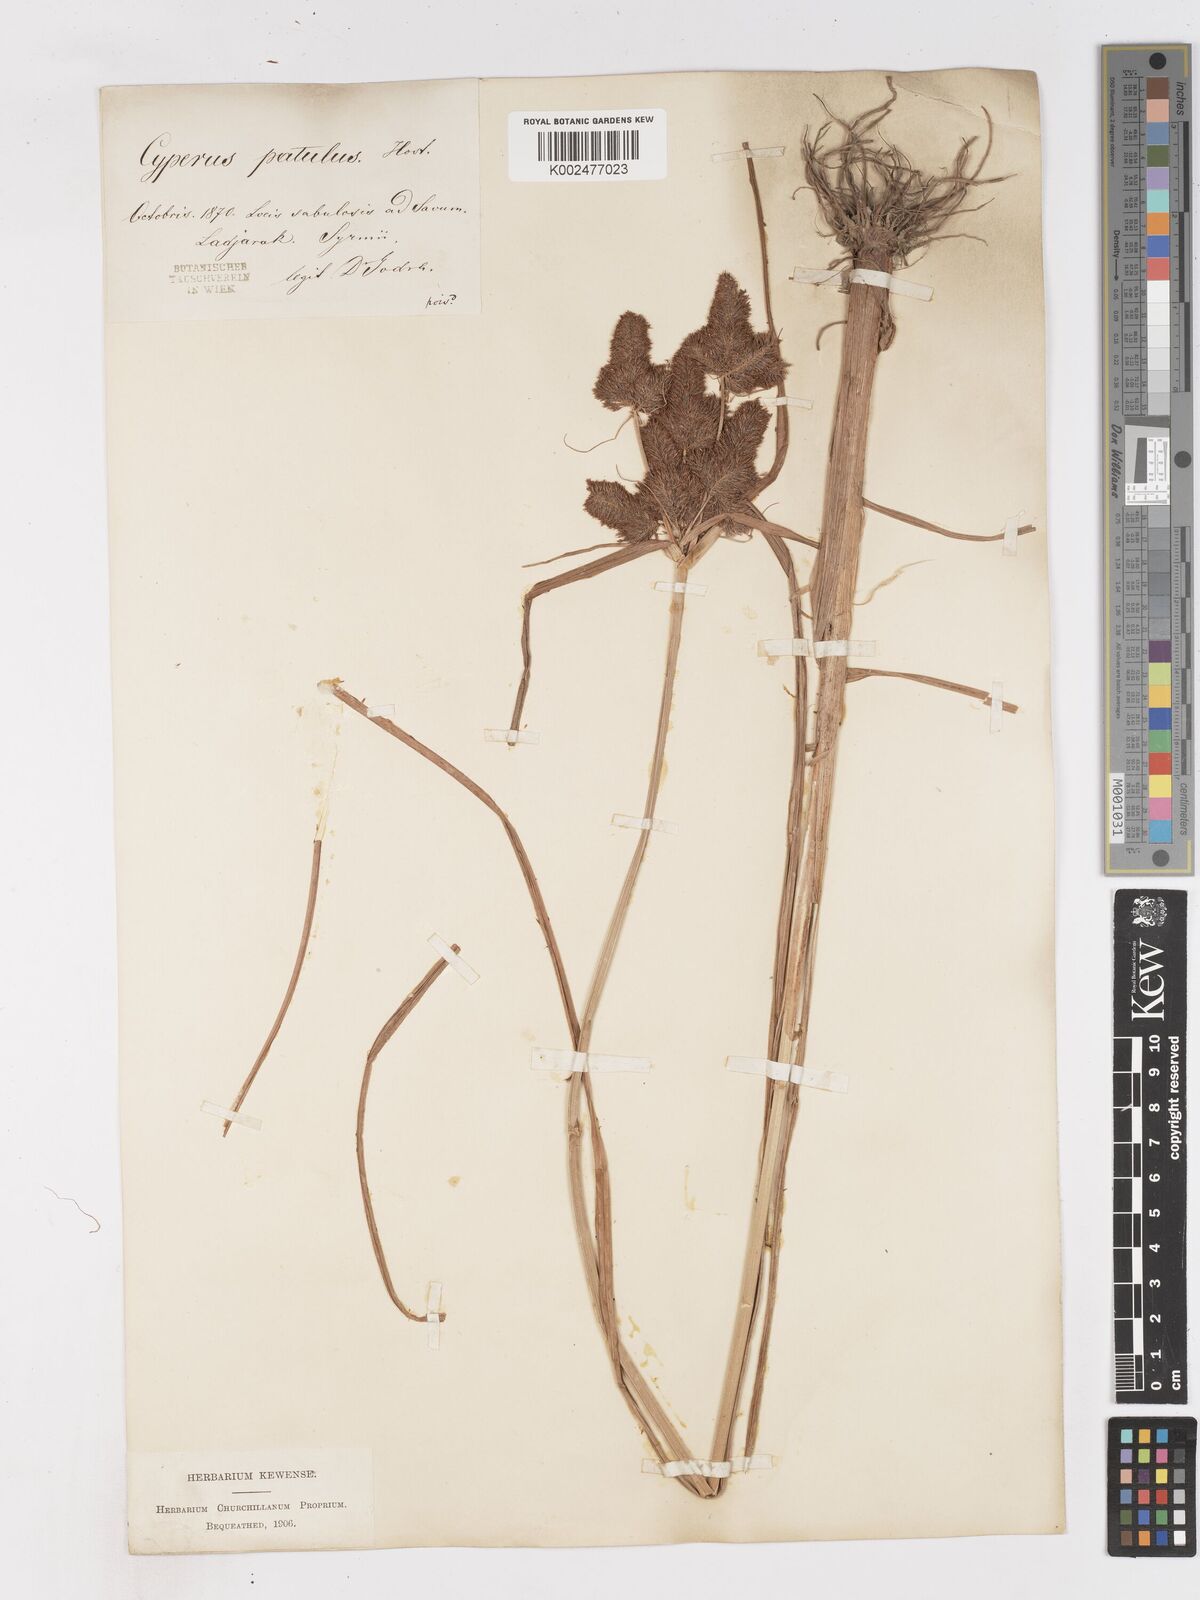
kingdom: Plantae
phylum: Tracheophyta
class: Liliopsida
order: Poales
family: Cyperaceae
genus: Cyperus
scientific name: Cyperus glomeratus
